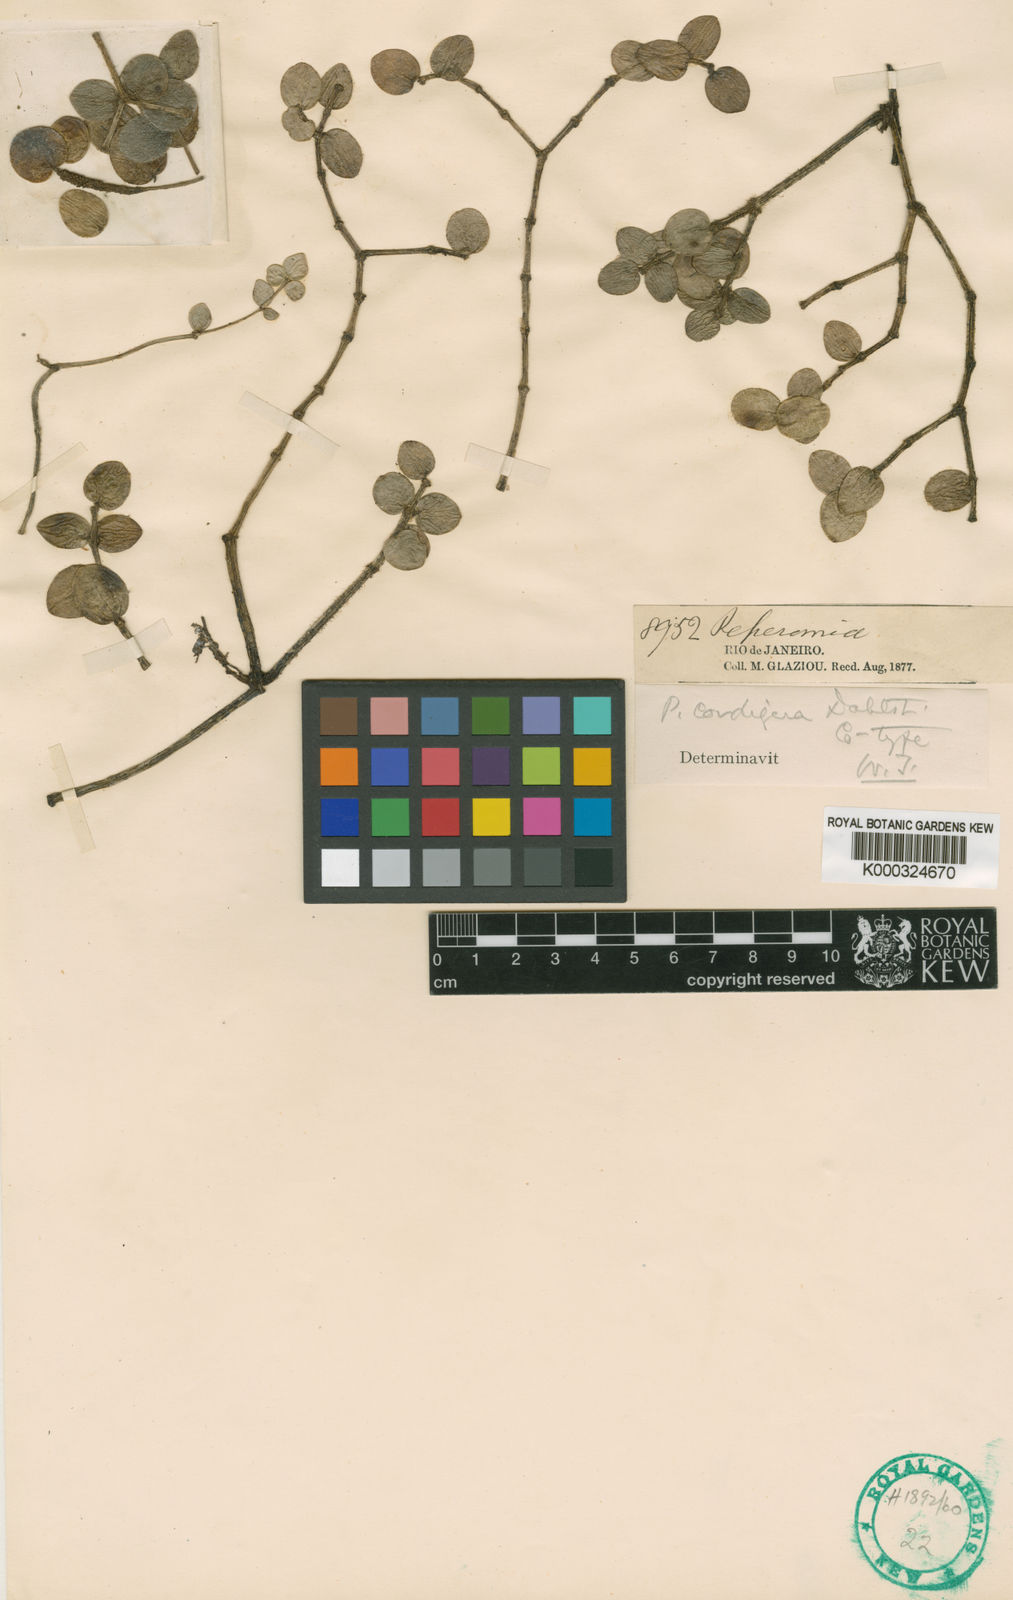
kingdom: Plantae
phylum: Tracheophyta
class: Magnoliopsida
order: Piperales
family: Piperaceae
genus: Peperomia
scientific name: Peperomia cordigera
